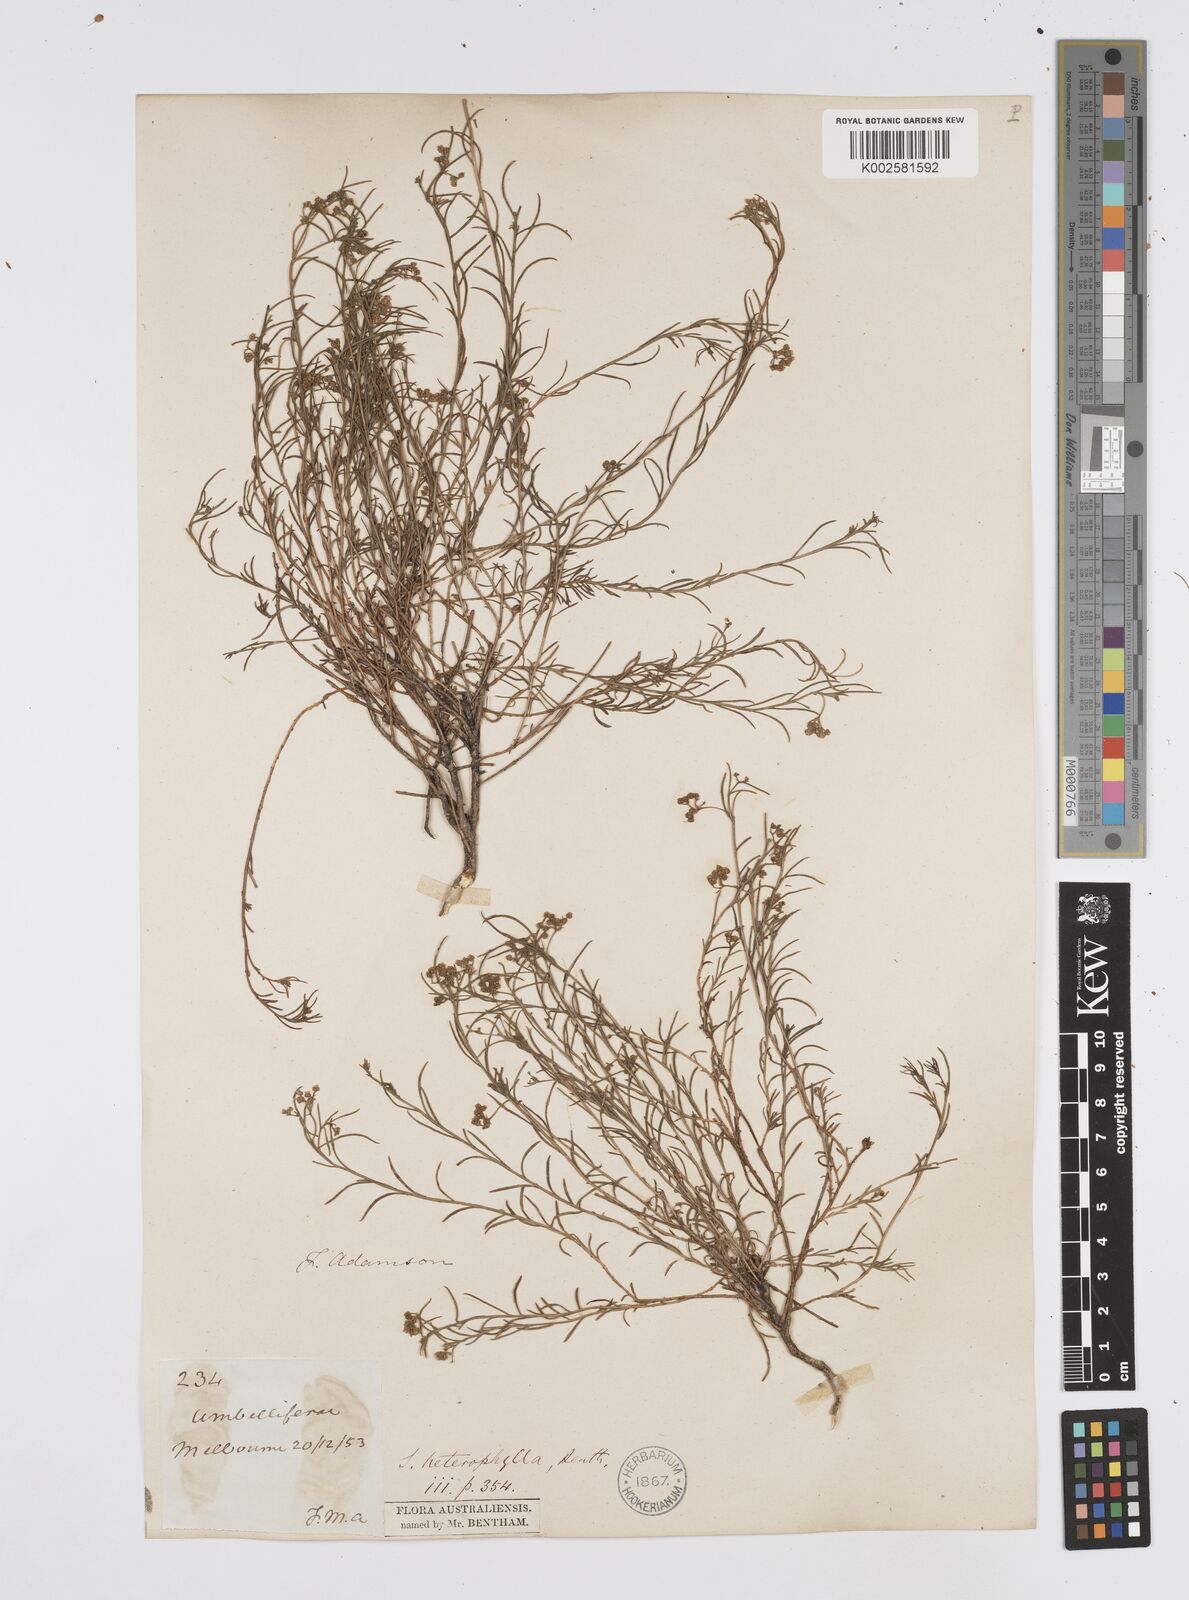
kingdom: Plantae
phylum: Tracheophyta
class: Magnoliopsida
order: Apiales
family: Apiaceae
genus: Platysace
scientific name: Platysace heterophylla
